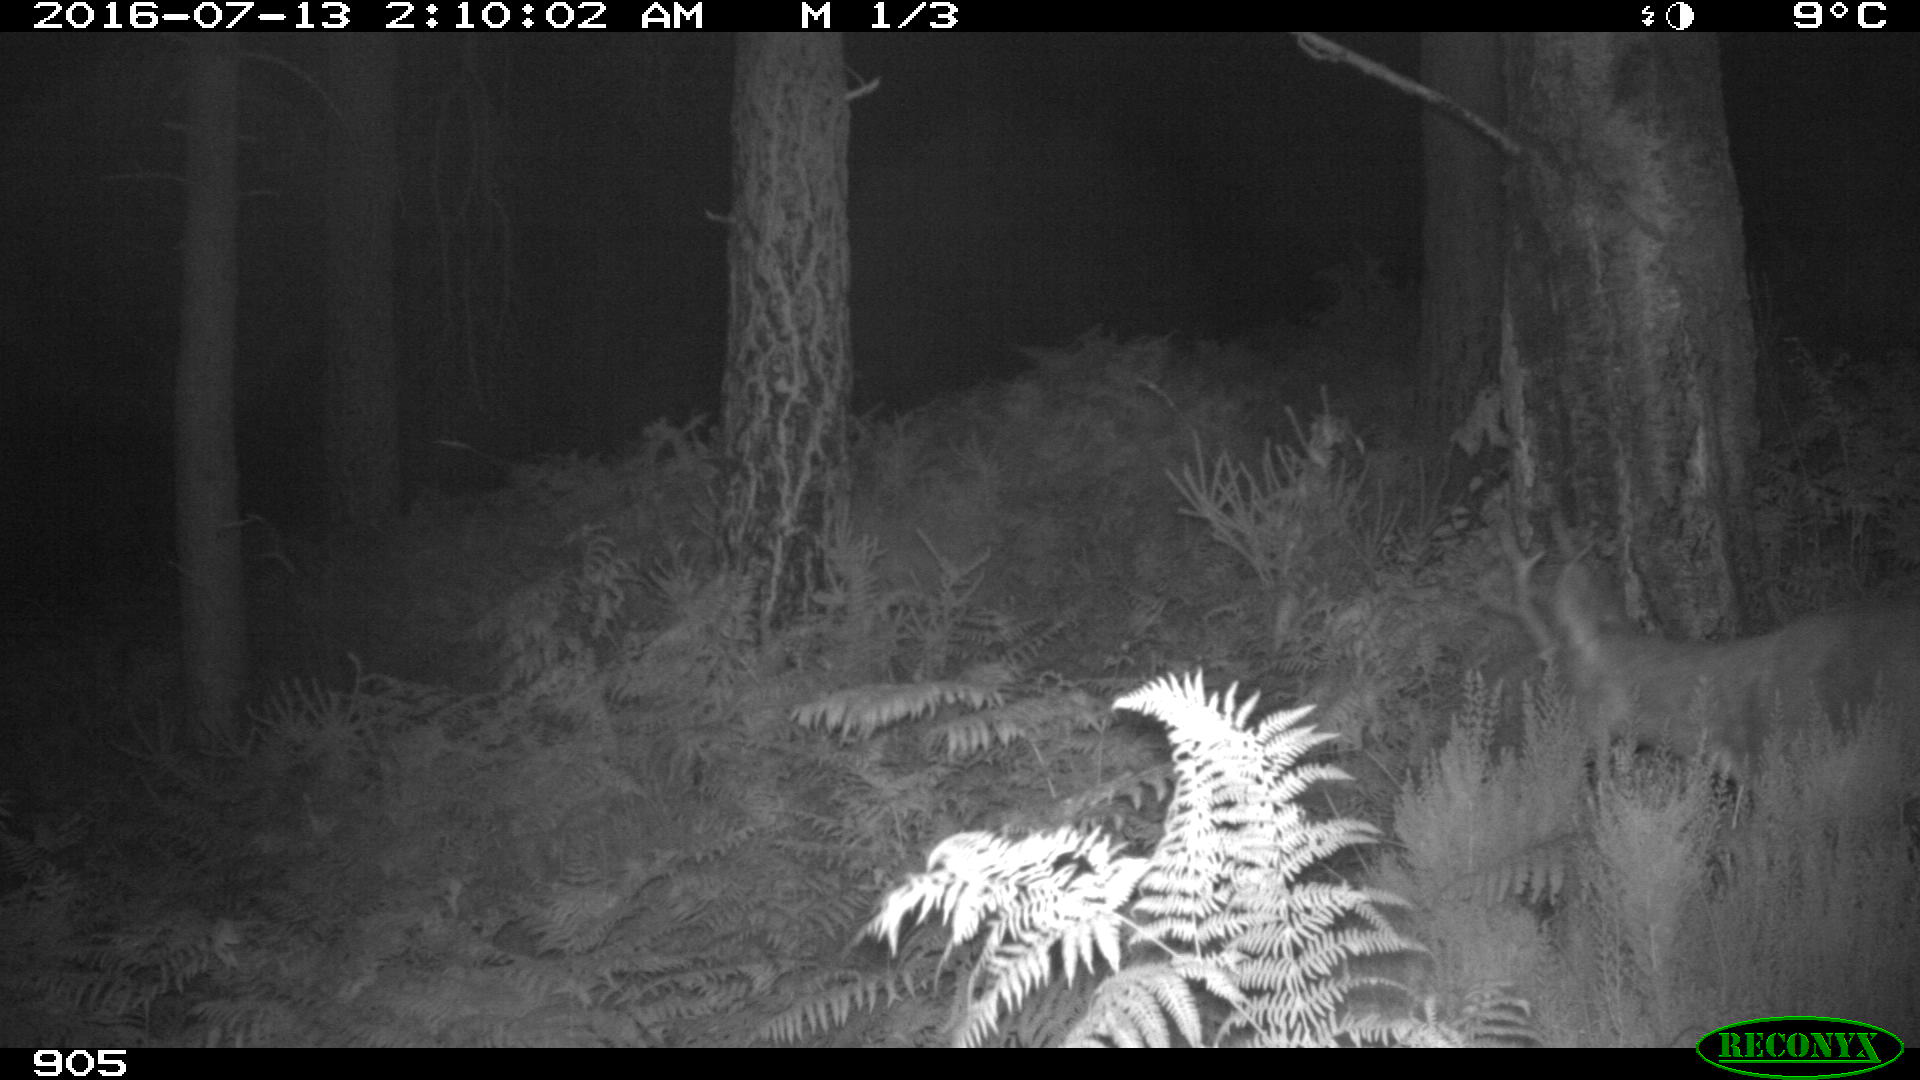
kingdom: Animalia
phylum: Chordata
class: Mammalia
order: Artiodactyla
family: Cervidae
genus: Capreolus
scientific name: Capreolus capreolus
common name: Western roe deer
